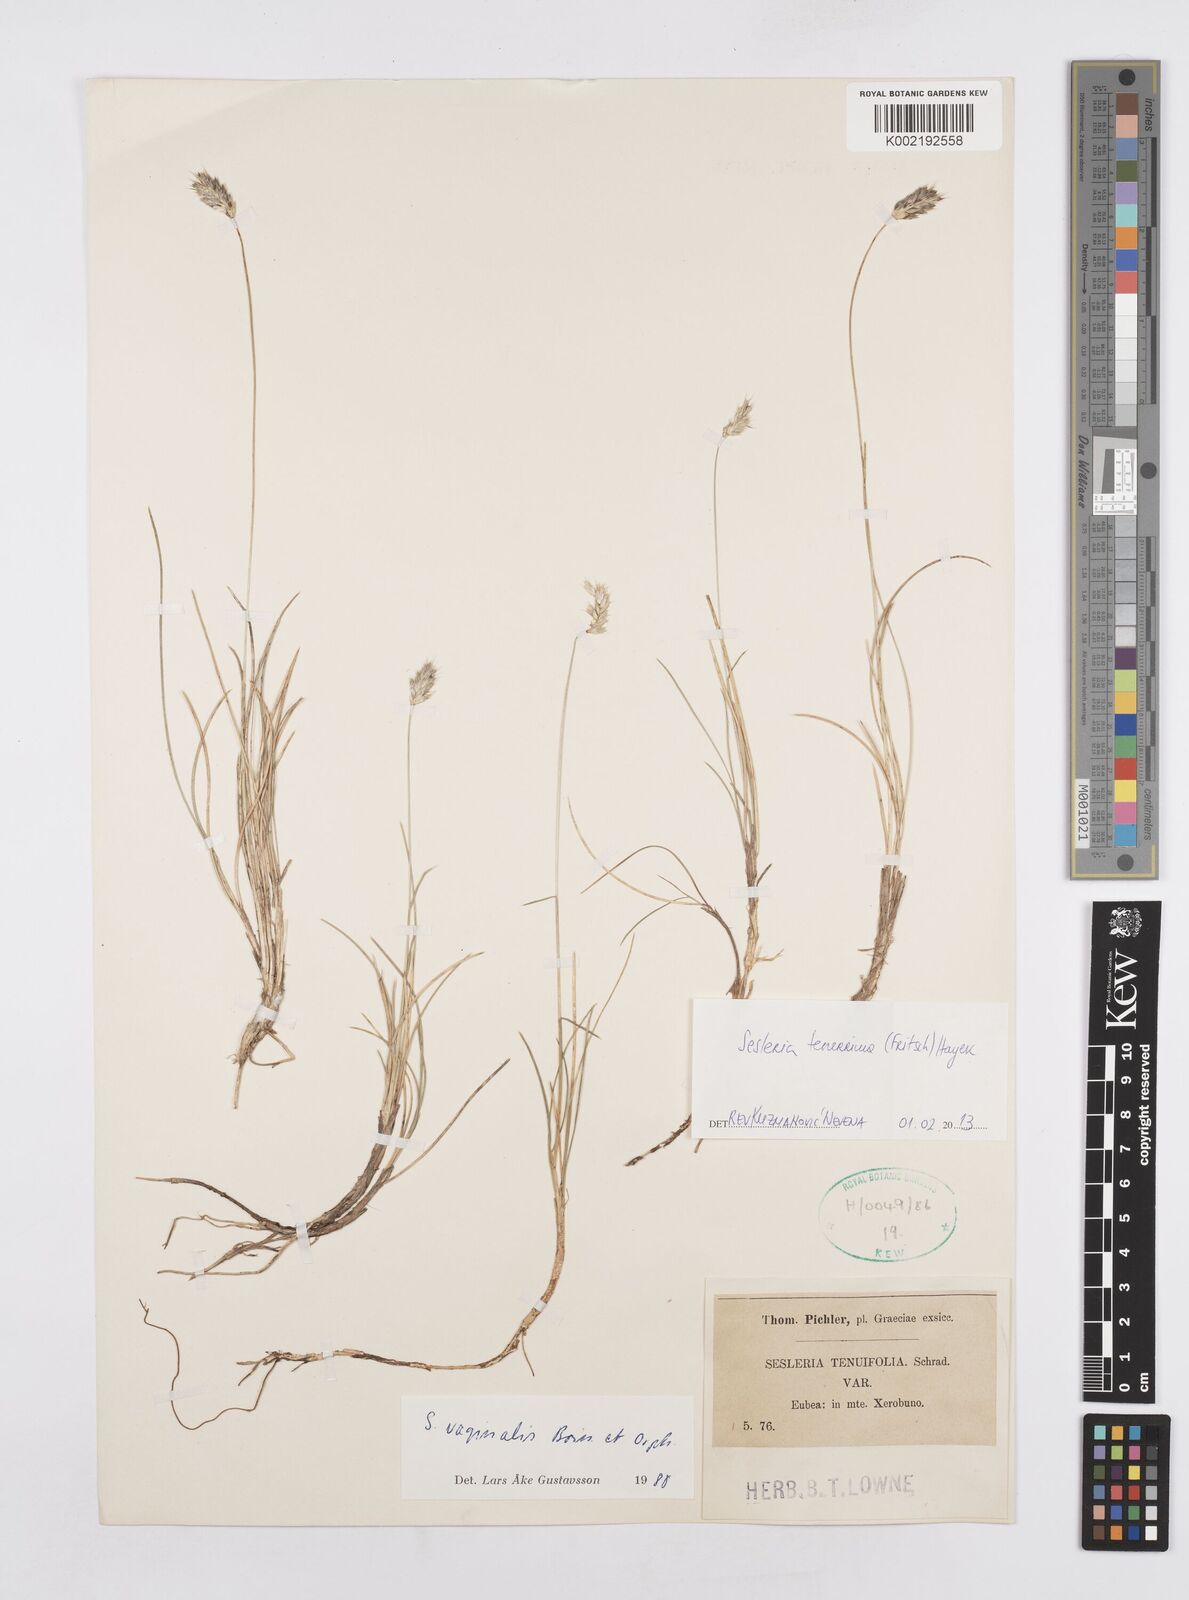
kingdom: Plantae
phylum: Tracheophyta
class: Liliopsida
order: Poales
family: Poaceae
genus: Sesleria
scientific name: Sesleria tenerrima
